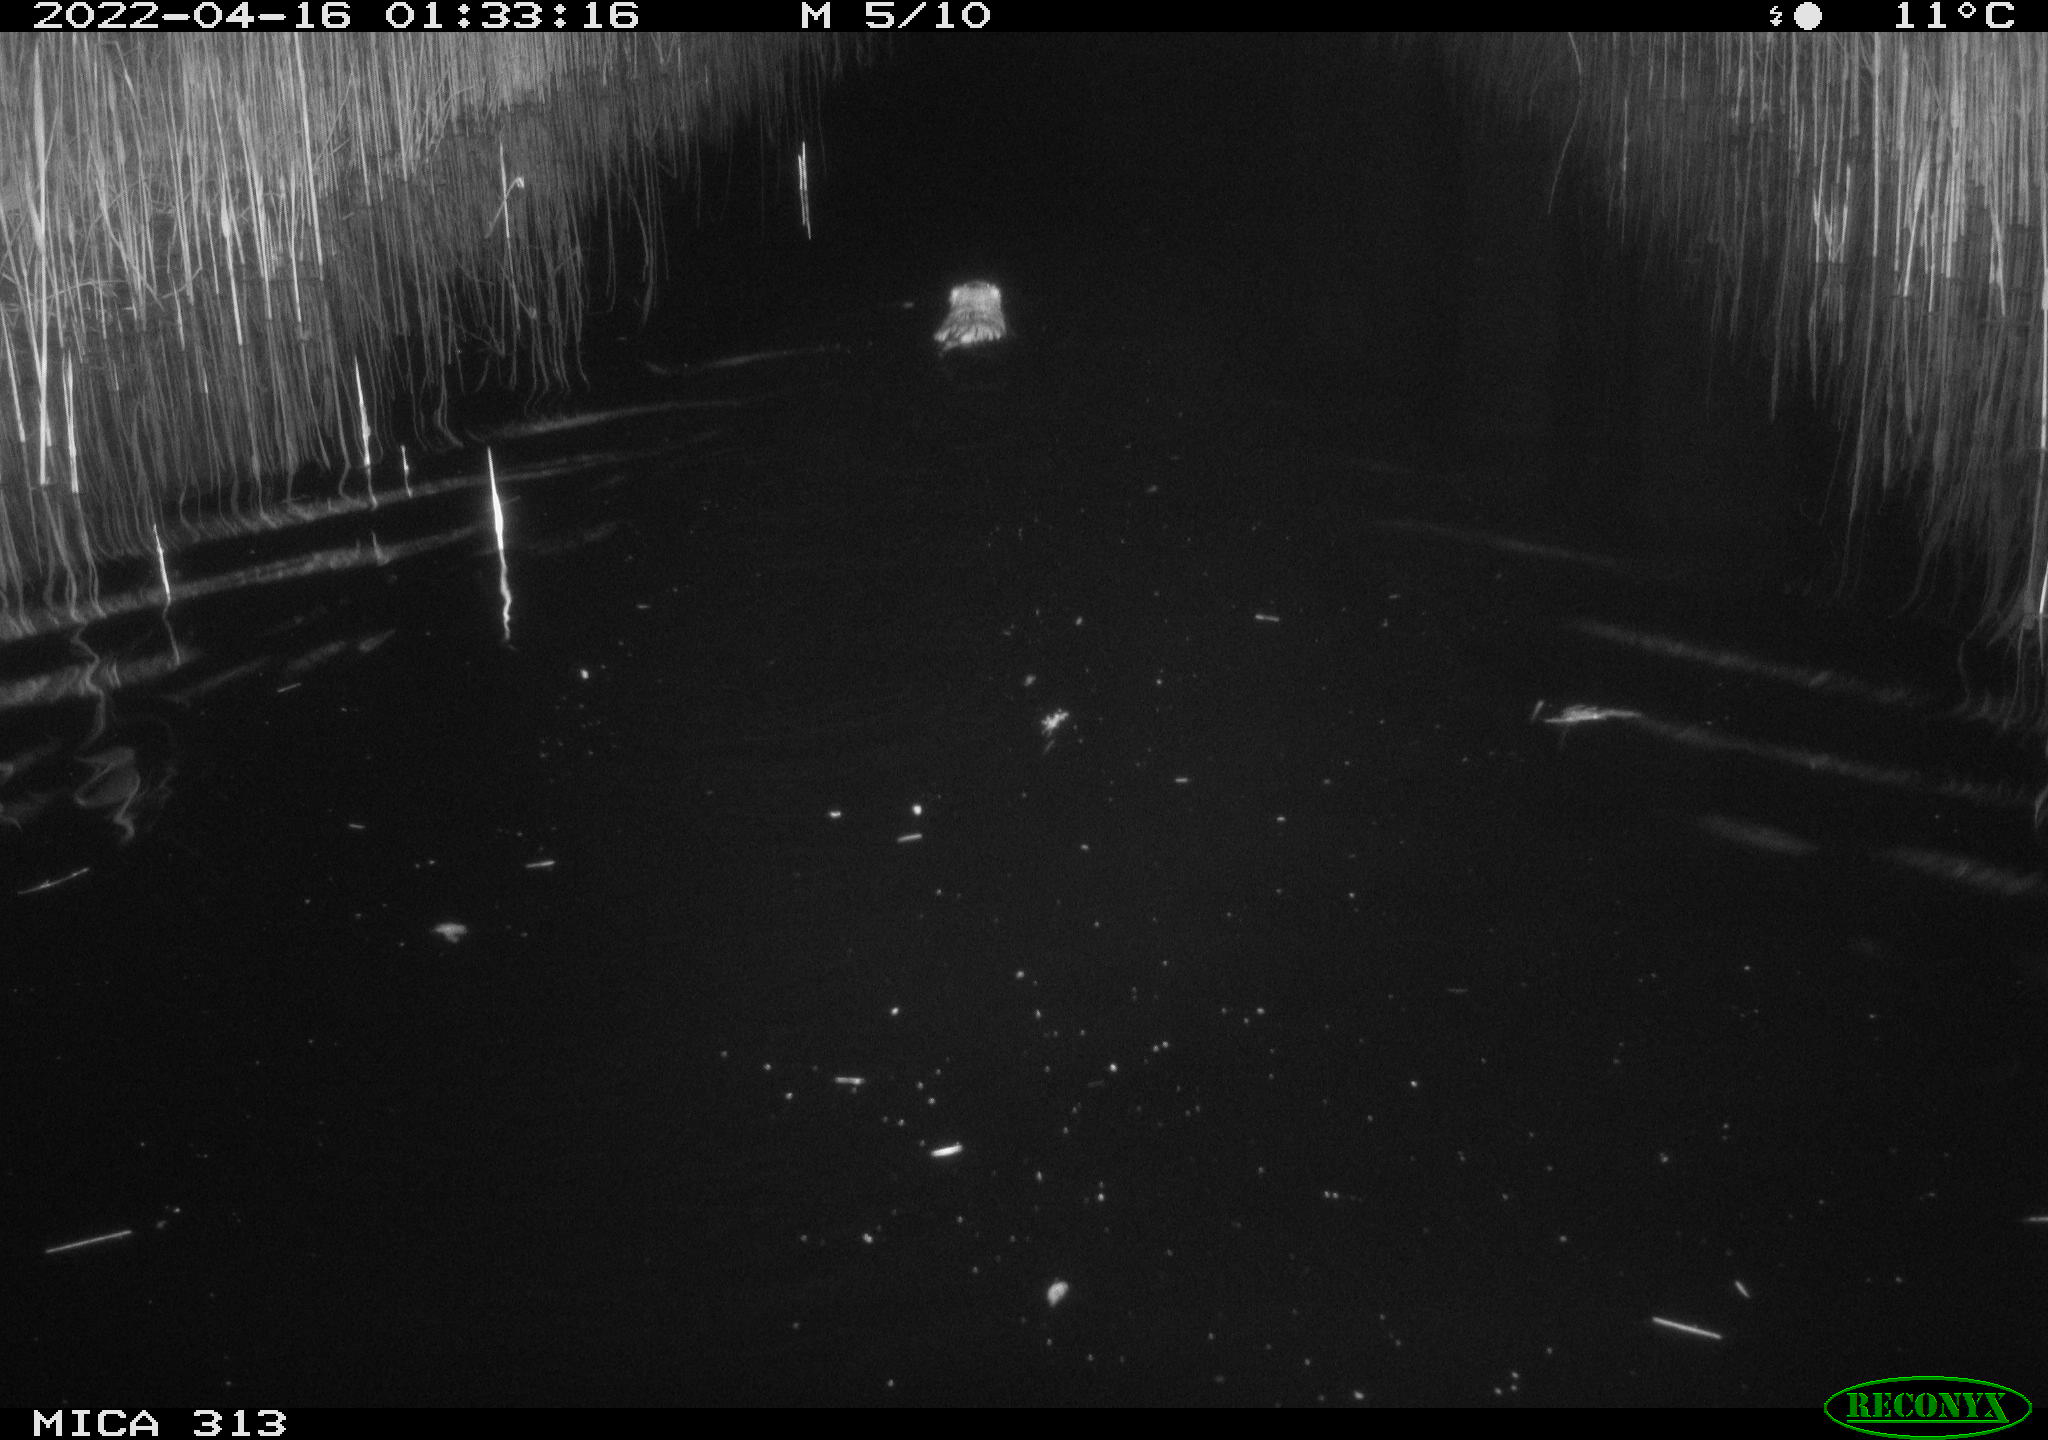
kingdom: Animalia
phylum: Chordata
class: Mammalia
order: Rodentia
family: Cricetidae
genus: Ondatra
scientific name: Ondatra zibethicus
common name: Muskrat
